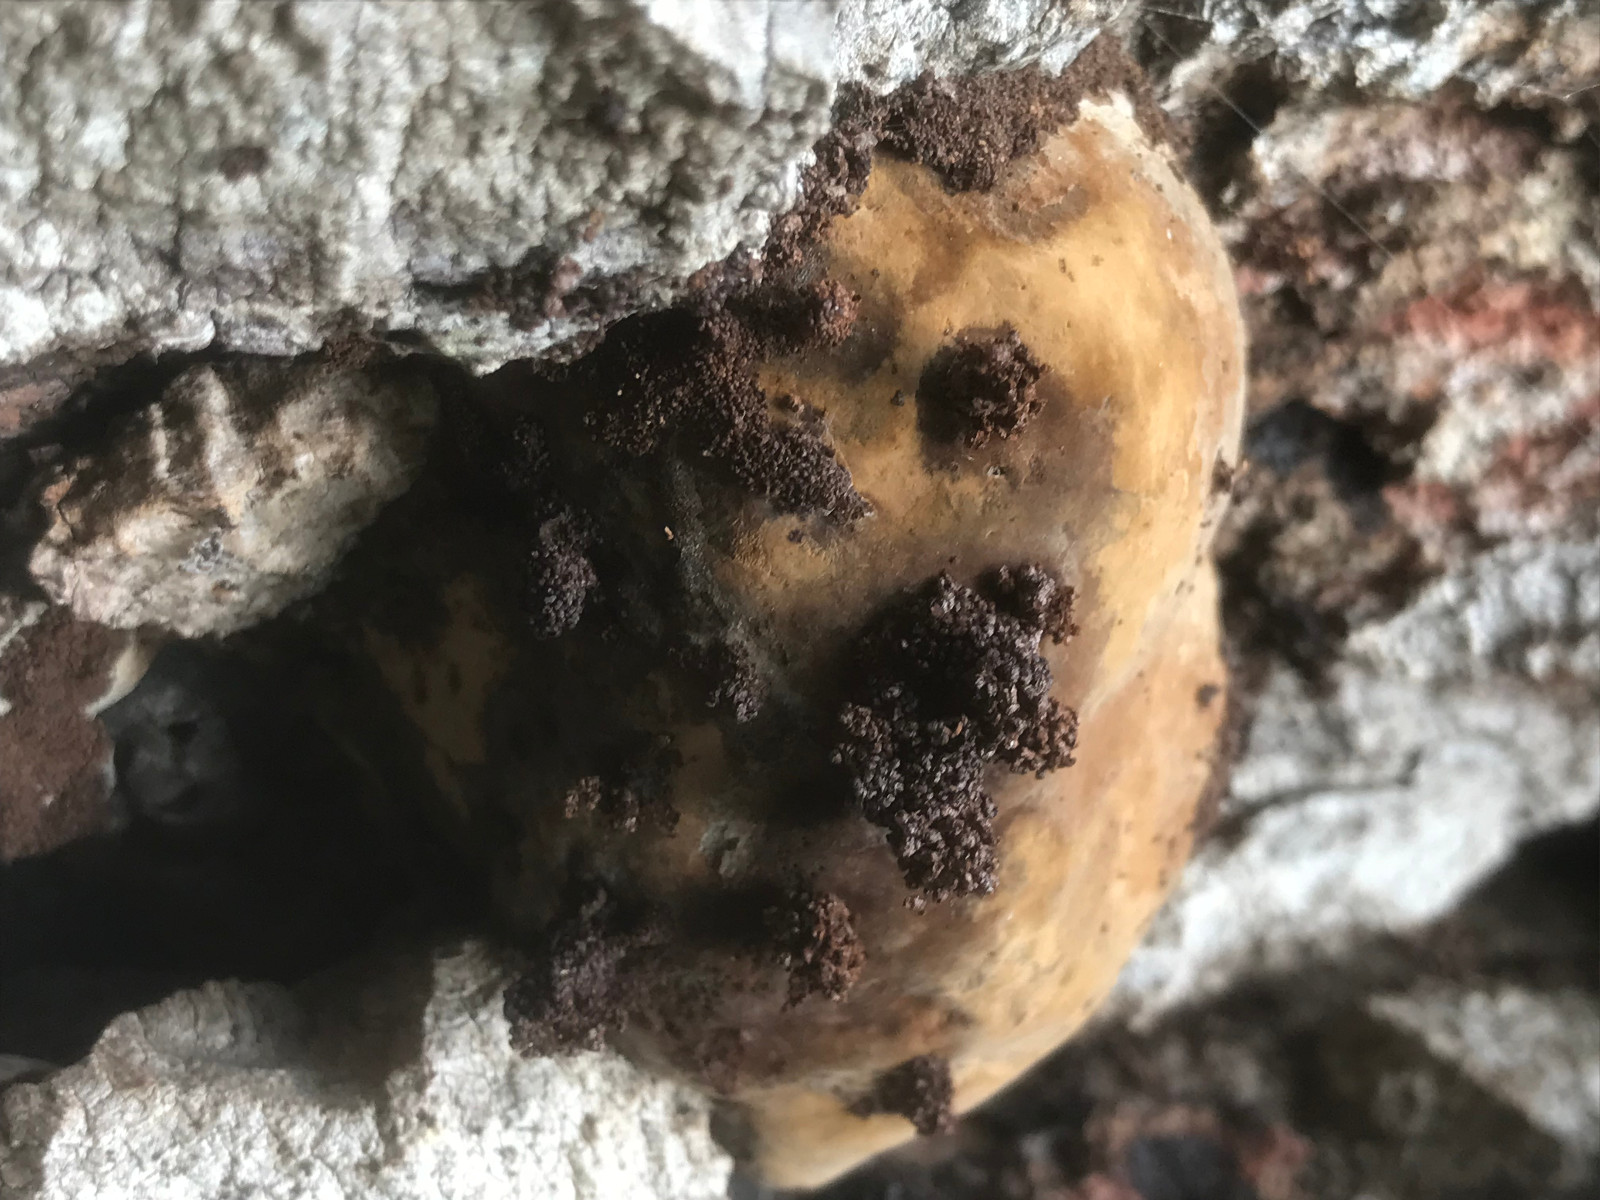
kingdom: Fungi
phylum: Basidiomycota
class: Agaricomycetes
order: Polyporales
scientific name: Polyporales
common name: poresvampordenen
